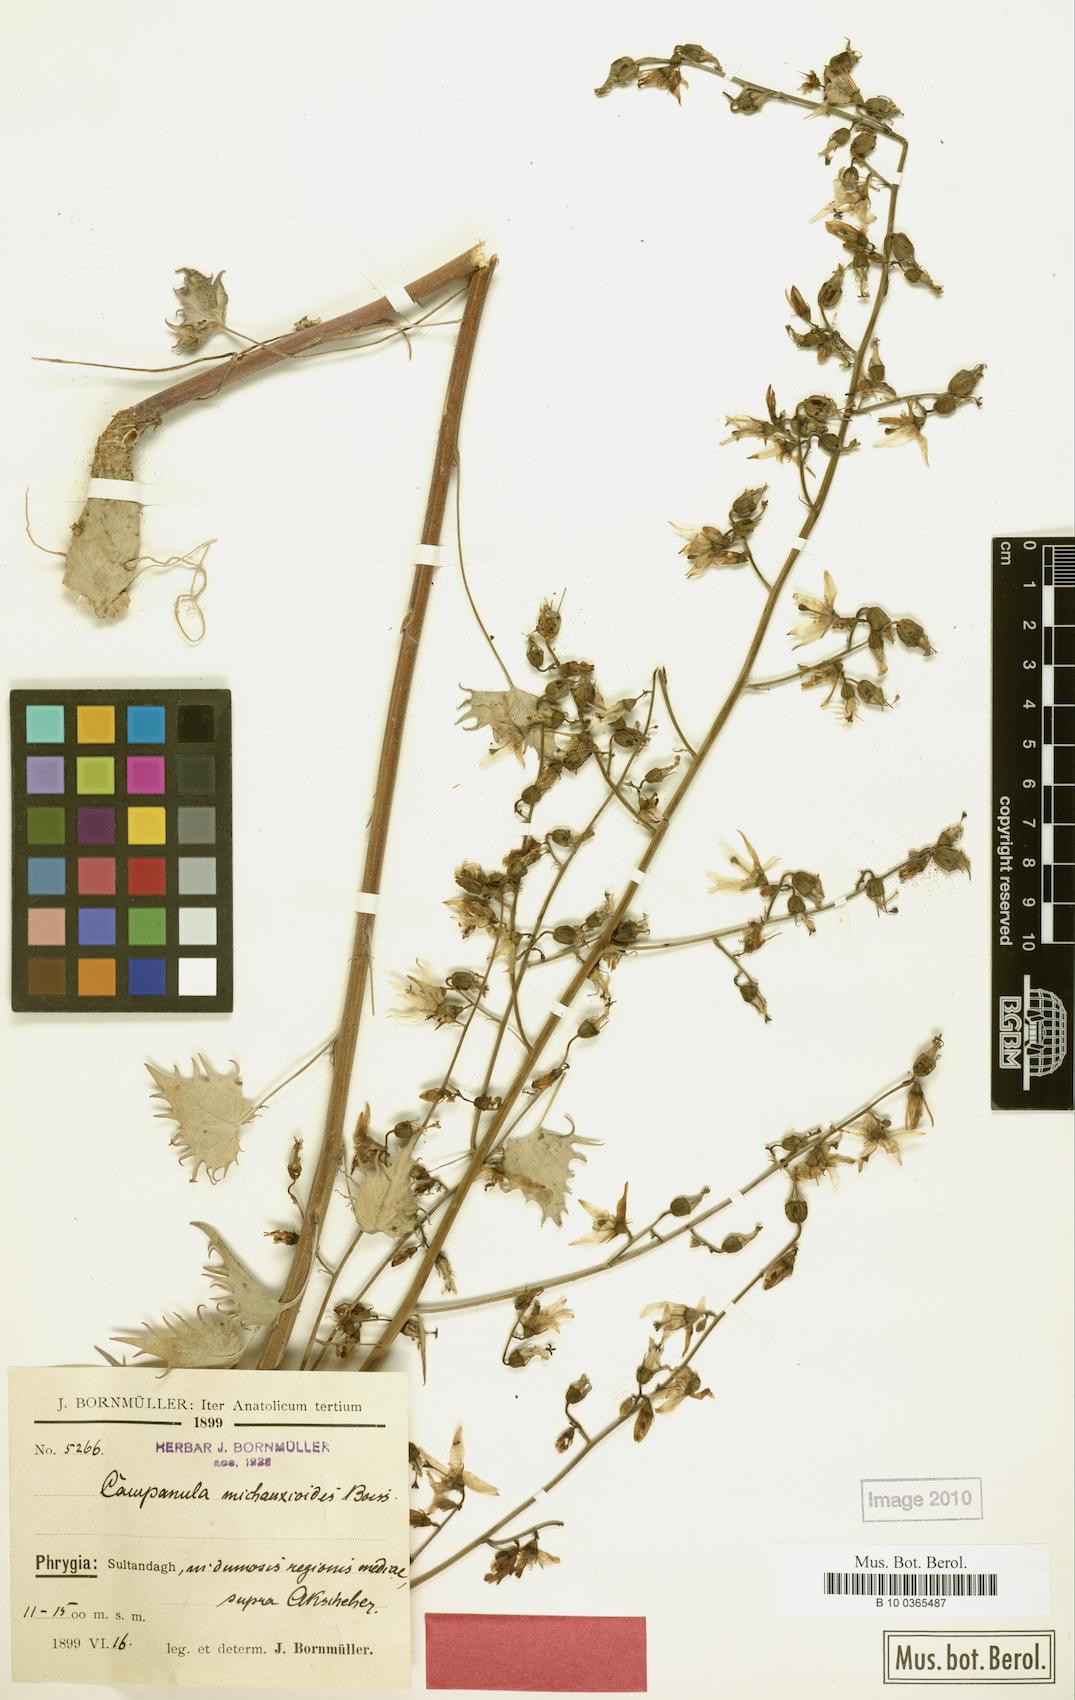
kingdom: Plantae
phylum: Tracheophyta
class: Magnoliopsida
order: Asterales
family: Campanulaceae
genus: Asyneuma
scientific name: Asyneuma michauxioides
